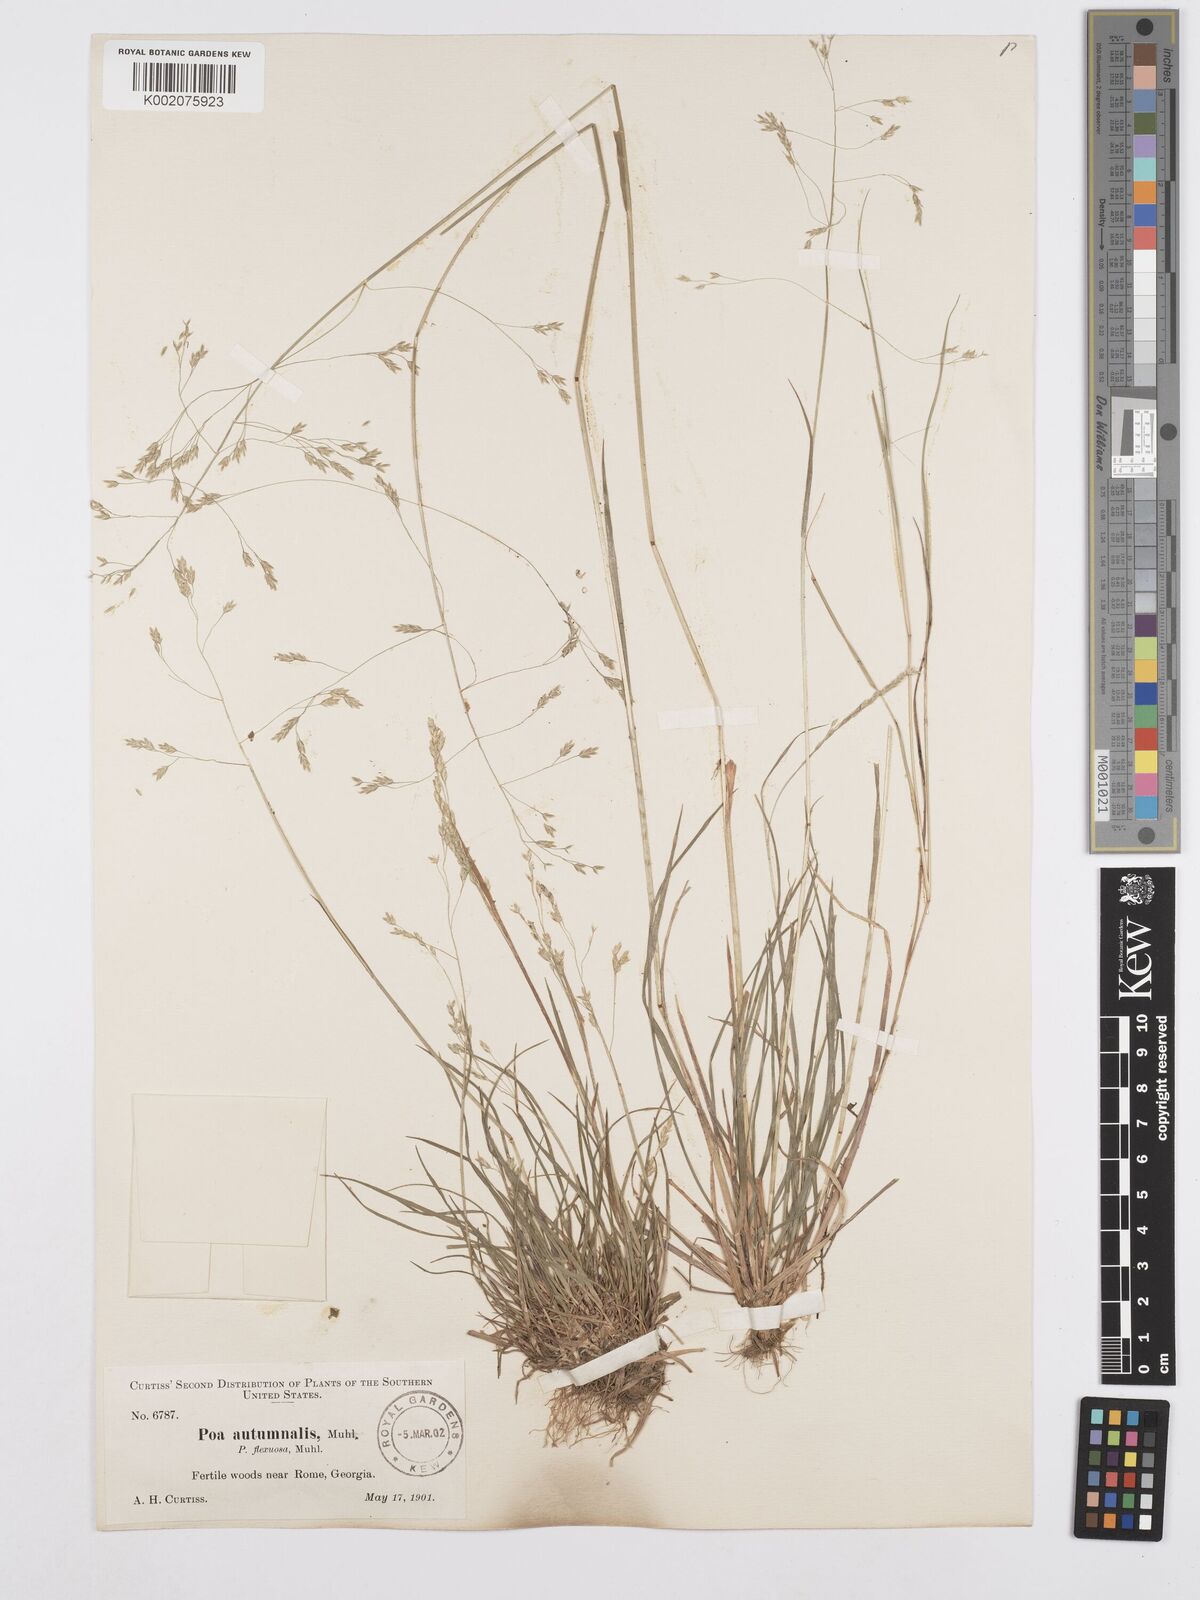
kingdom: Plantae
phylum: Tracheophyta
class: Liliopsida
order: Poales
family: Poaceae
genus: Poa
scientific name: Poa autumnalis
